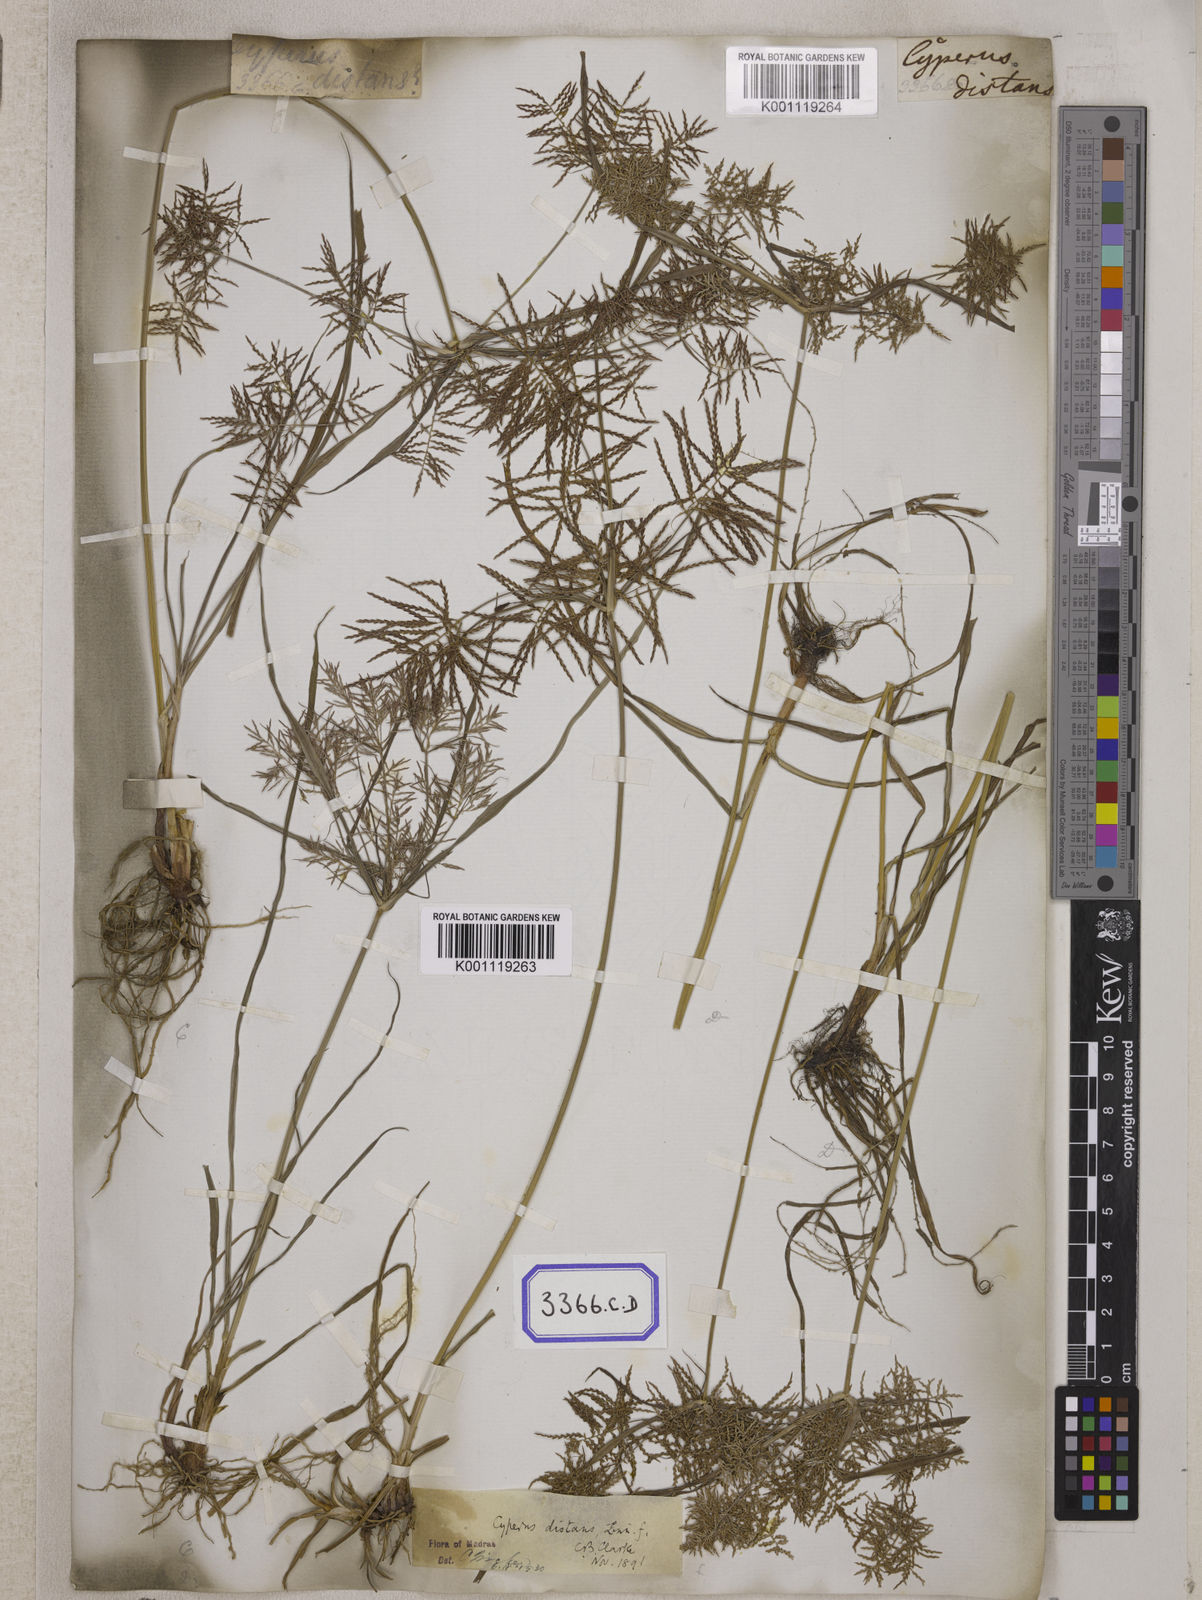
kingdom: Plantae
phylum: Tracheophyta
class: Liliopsida
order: Poales
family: Cyperaceae
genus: Cyperus
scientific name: Cyperus
